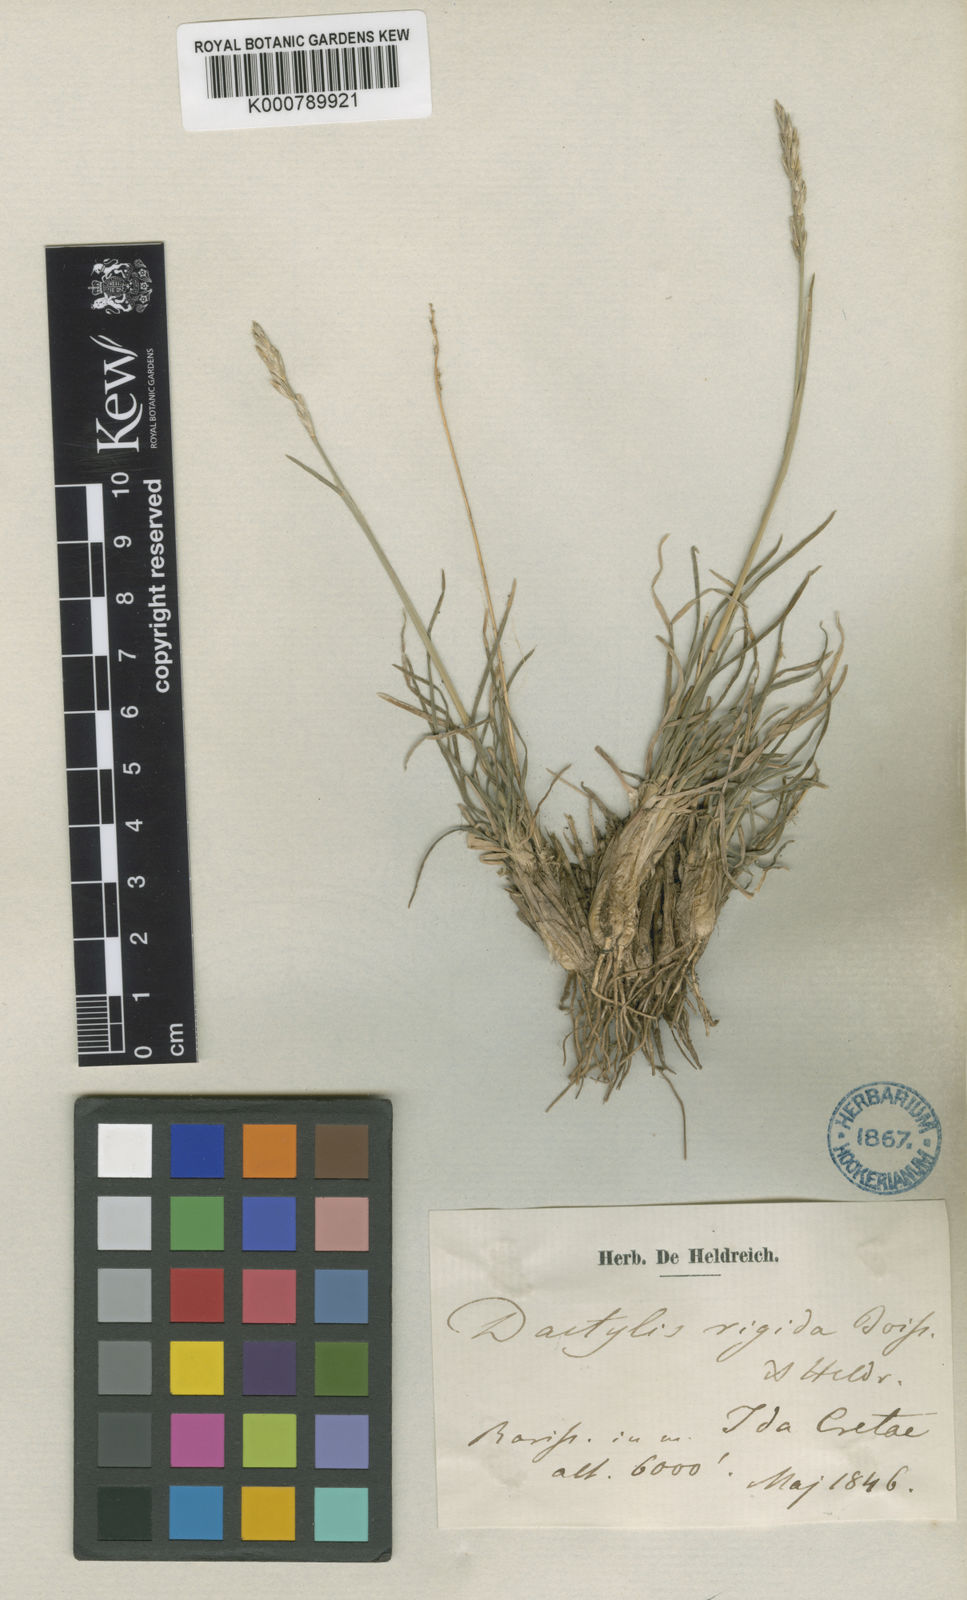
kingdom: Plantae
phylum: Tracheophyta
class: Liliopsida
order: Poales
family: Poaceae
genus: Dactylis
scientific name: Dactylis glomerata
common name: Orchardgrass
